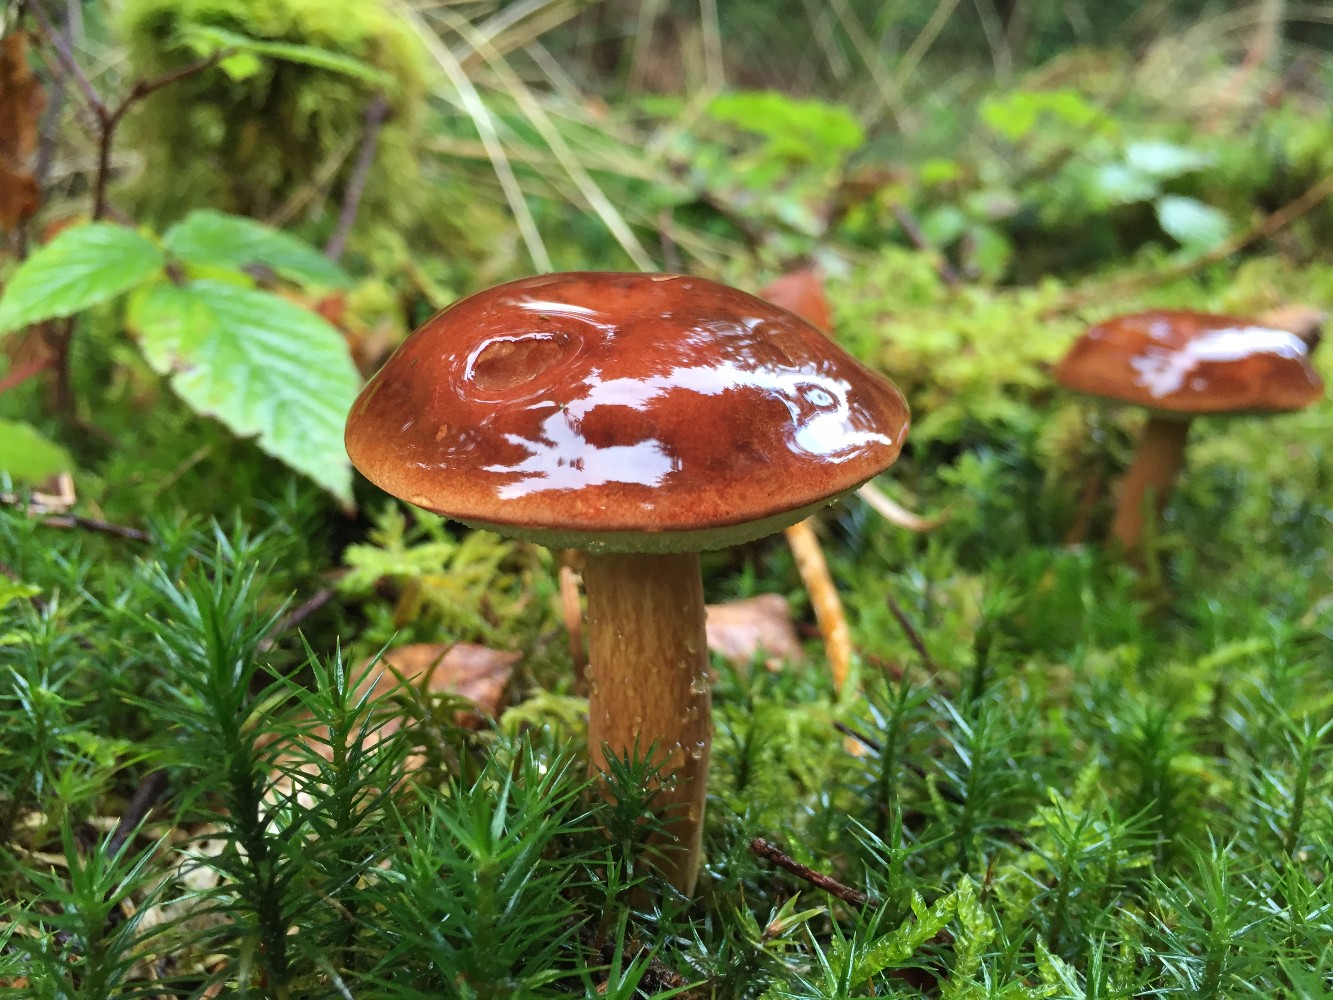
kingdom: Fungi
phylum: Basidiomycota
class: Agaricomycetes
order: Boletales
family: Boletaceae
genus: Imleria
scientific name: Imleria badia
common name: brunstokket rørhat
